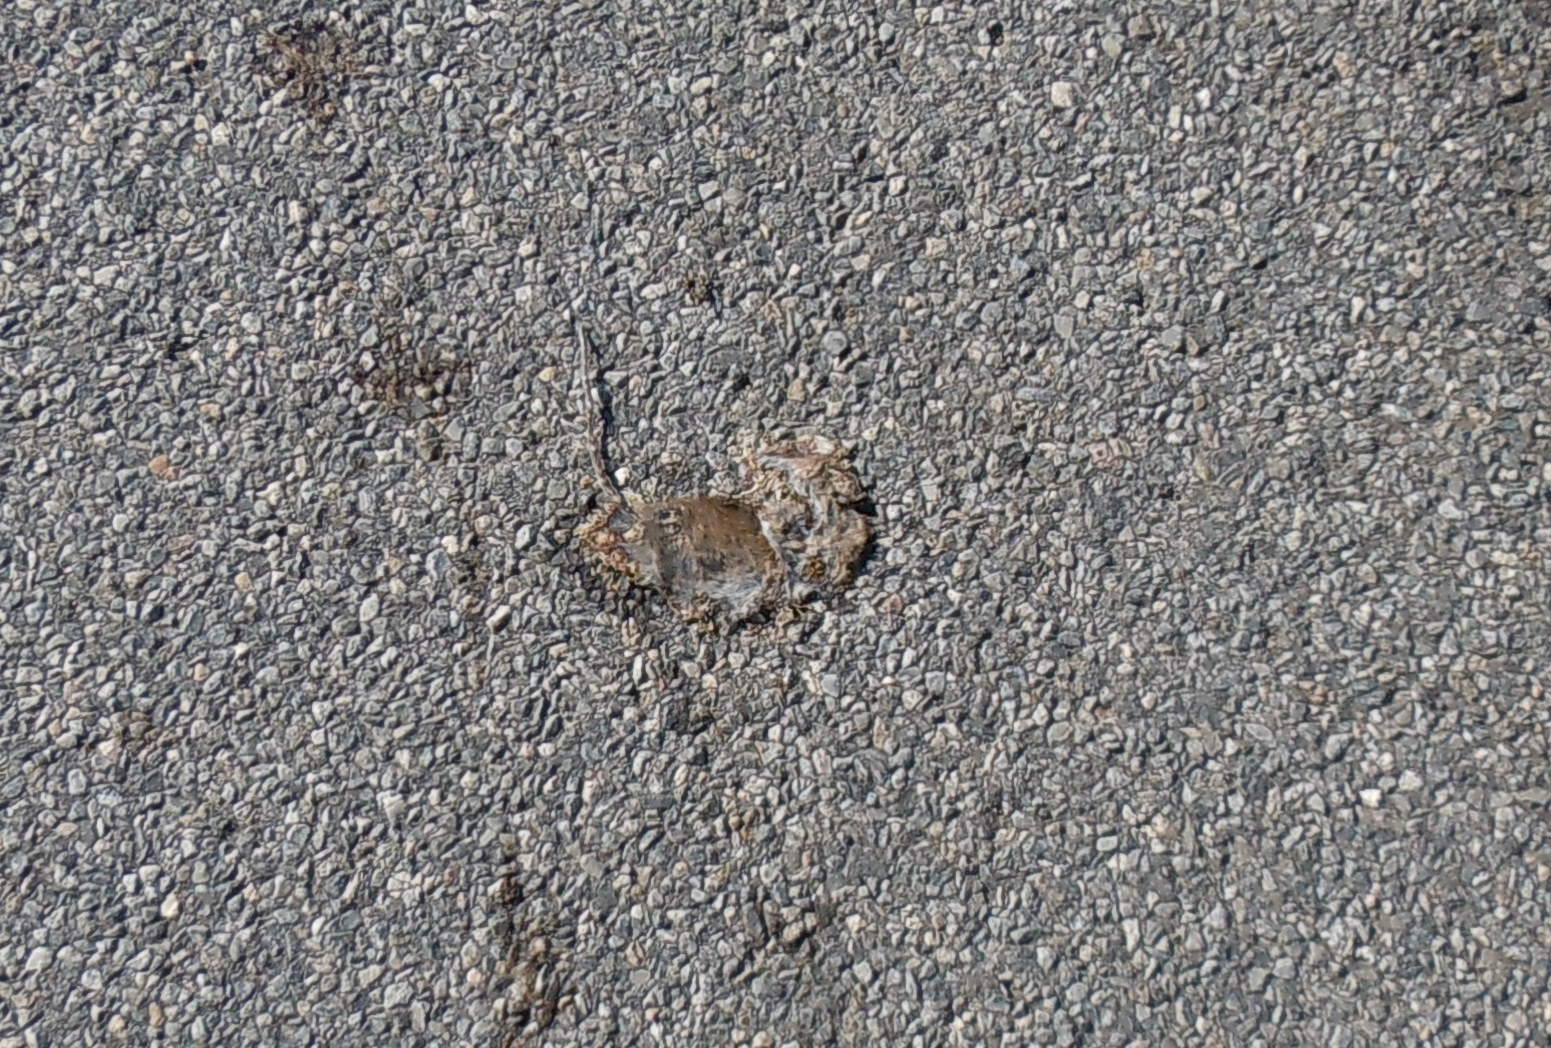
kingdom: Animalia
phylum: Chordata
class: Mammalia
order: Rodentia
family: Muridae
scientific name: Muridae
